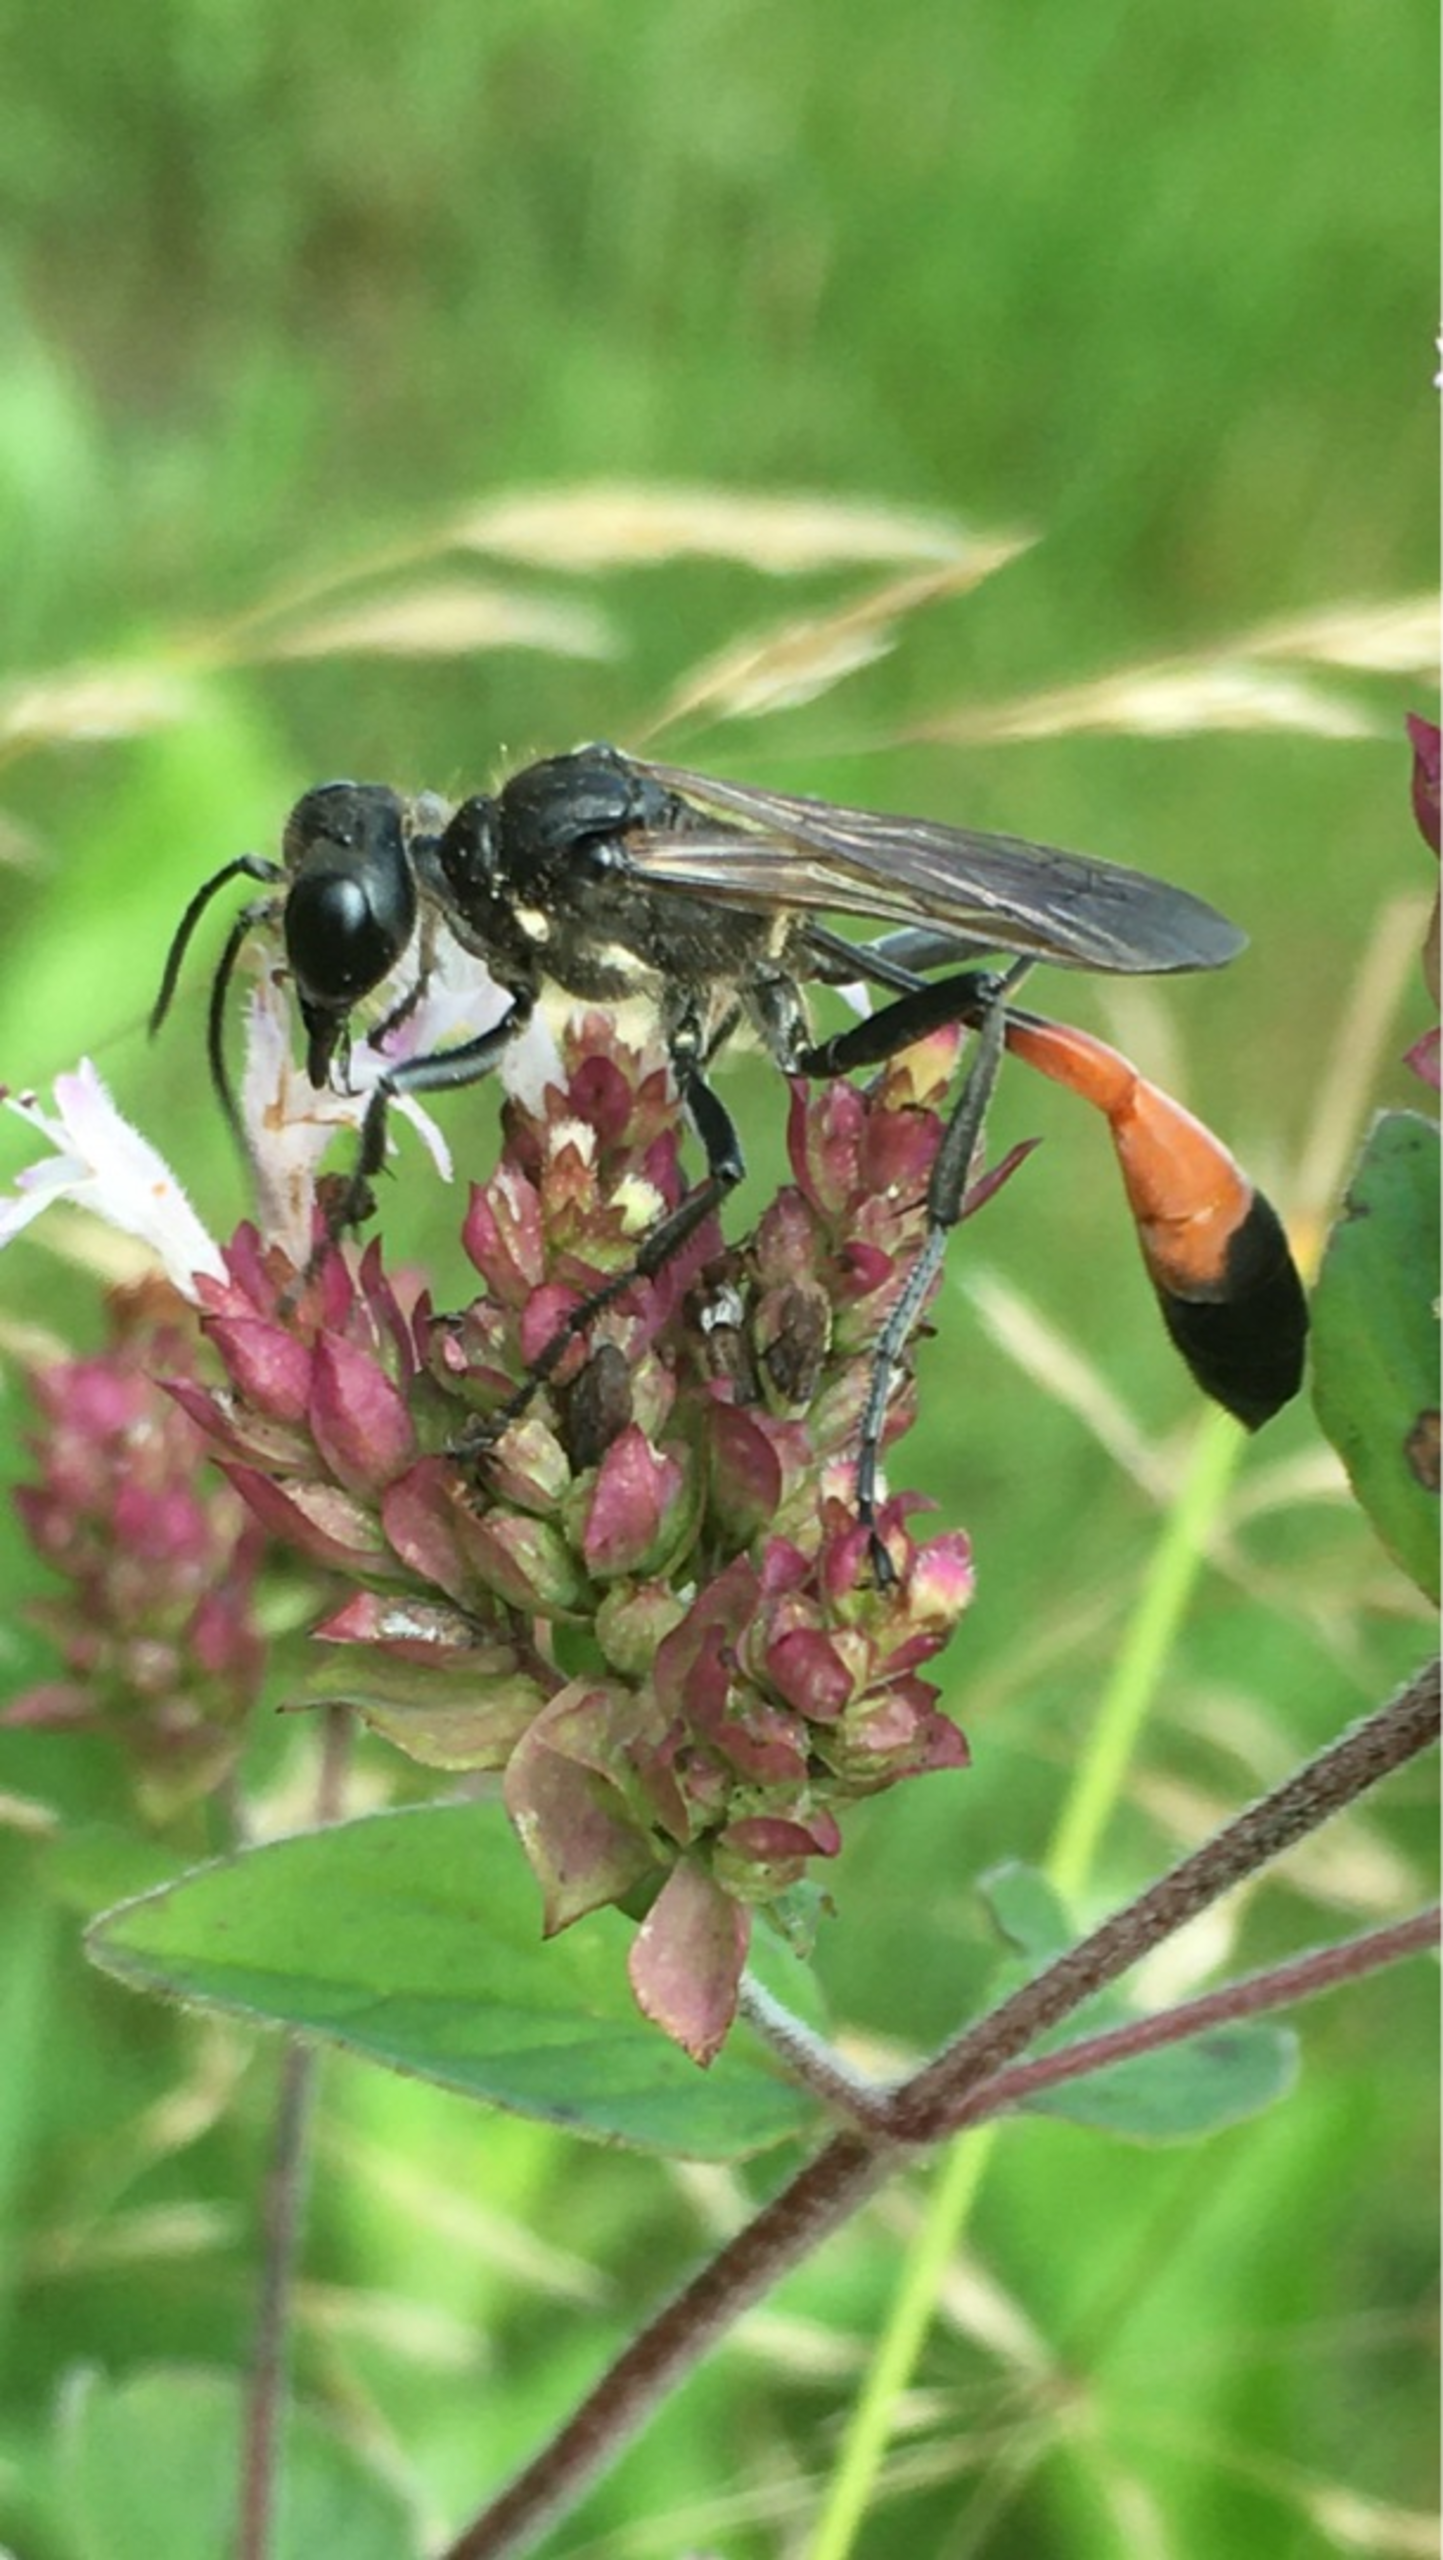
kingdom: Animalia
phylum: Arthropoda
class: Insecta
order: Hymenoptera
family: Sphecidae
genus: Ammophila
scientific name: Ammophila sabulosa
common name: Almindelig sandhveps
